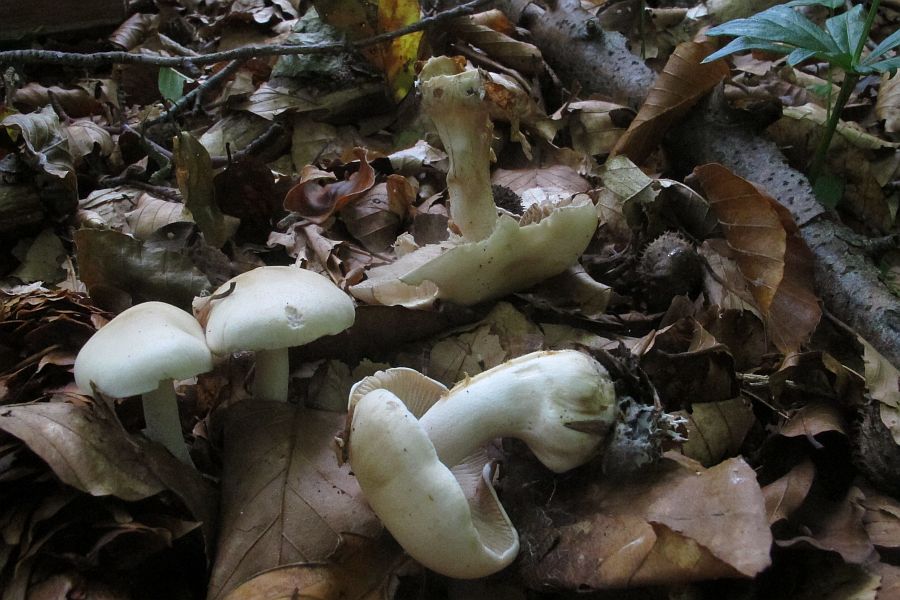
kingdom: Fungi
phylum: Basidiomycota
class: Agaricomycetes
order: Agaricales
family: Hymenogastraceae
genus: Hebeloma
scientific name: Hebeloma leucosarx
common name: højstokket tåreblad
